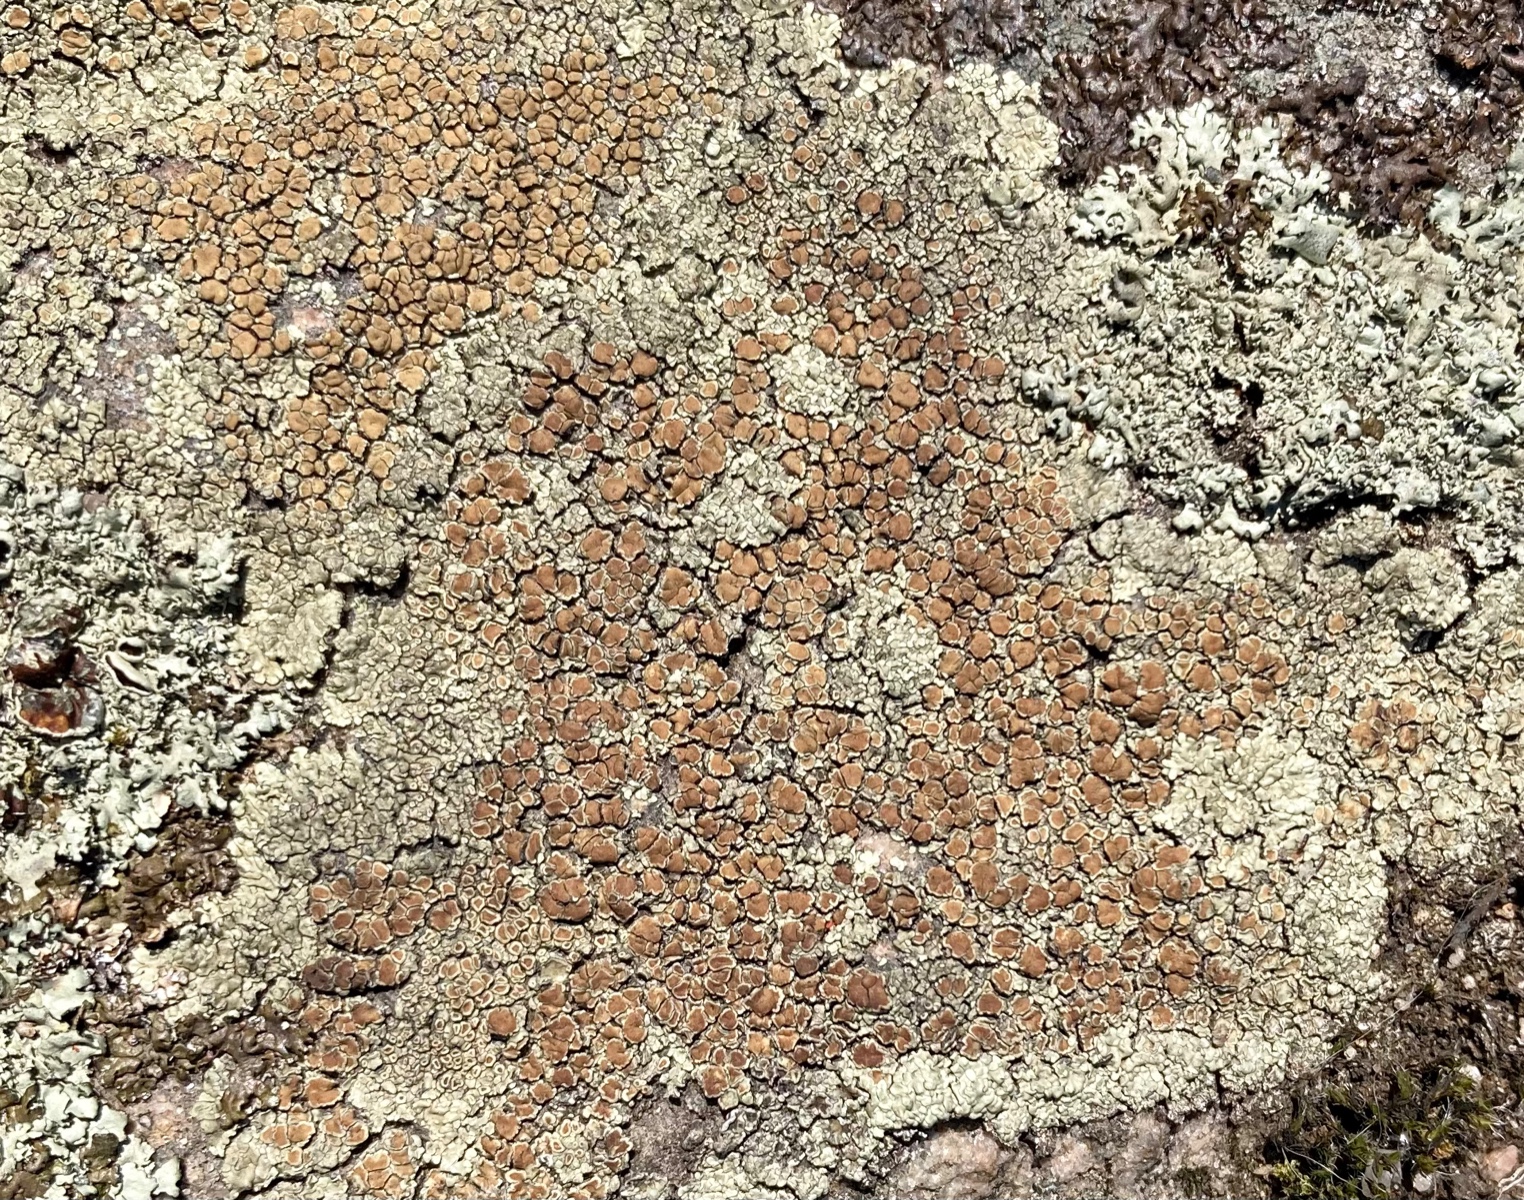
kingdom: Fungi
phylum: Ascomycota
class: Lecanoromycetes
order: Lecanorales
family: Lecanoraceae
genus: Protoparmeliopsis
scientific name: Protoparmeliopsis muralis
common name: randfliget kantskivelav
